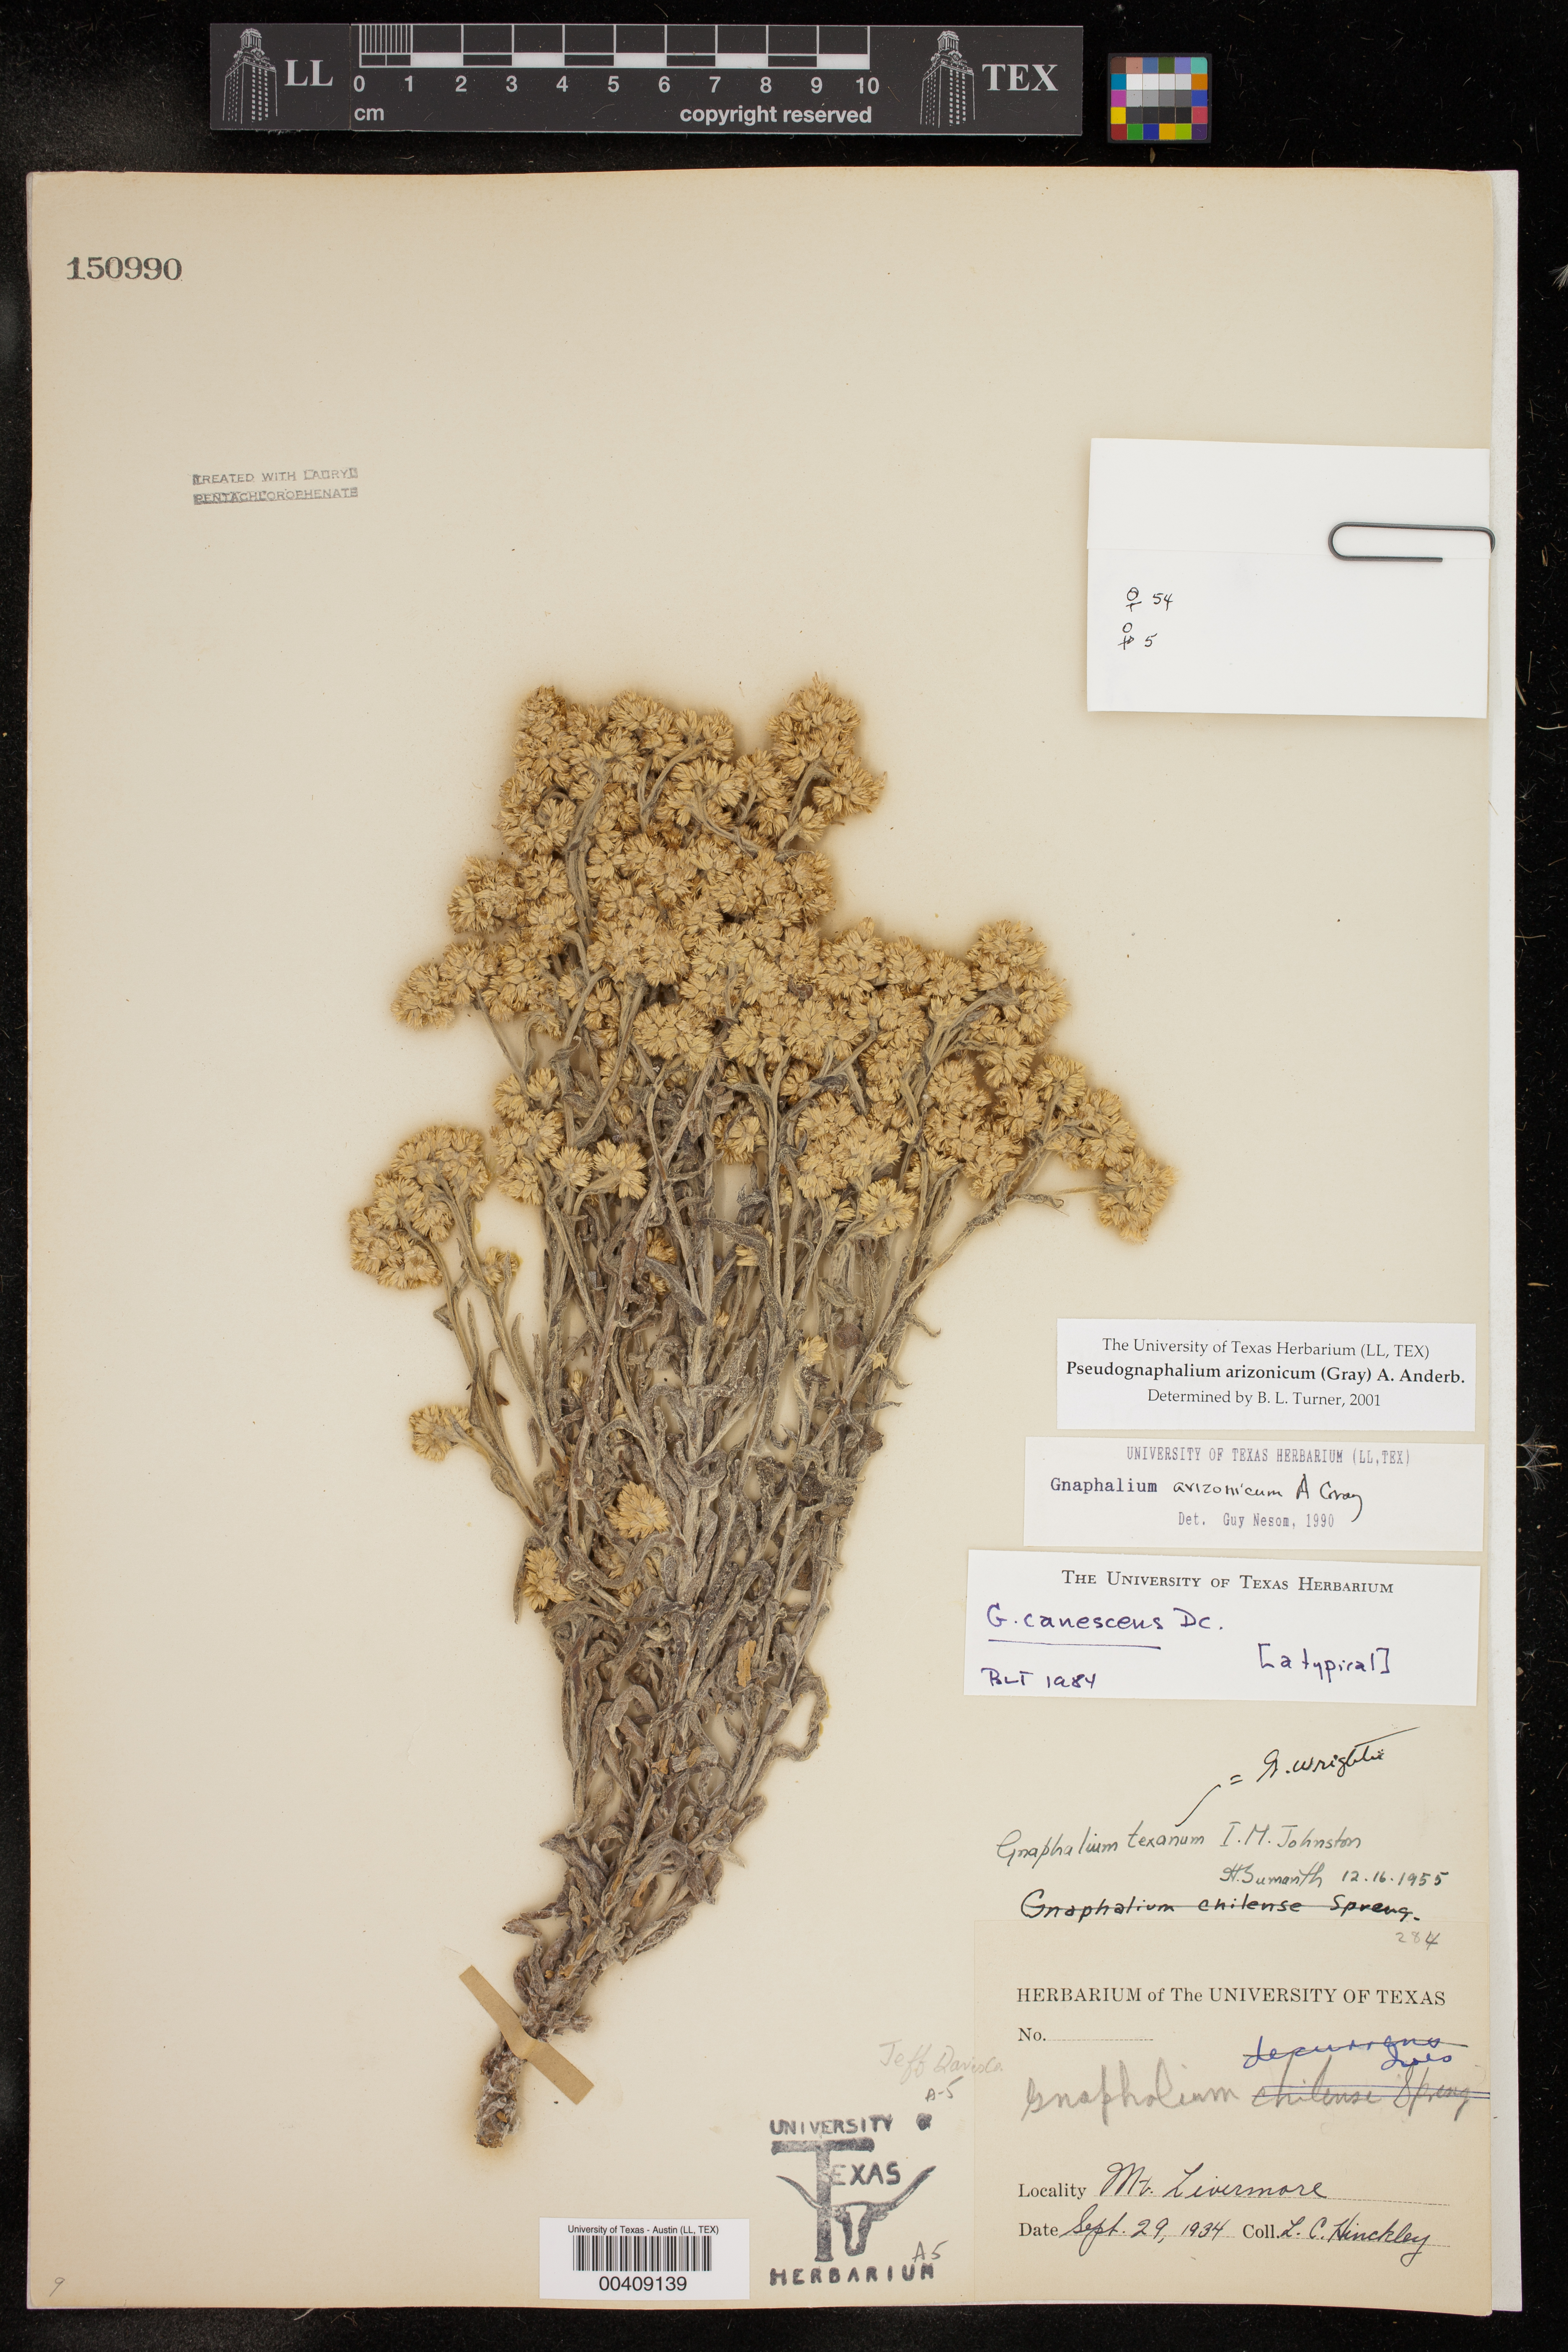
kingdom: Plantae
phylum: Tracheophyta
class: Magnoliopsida
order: Asterales
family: Asteraceae
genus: Pseudognaphalium
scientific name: Pseudognaphalium arizonicum
